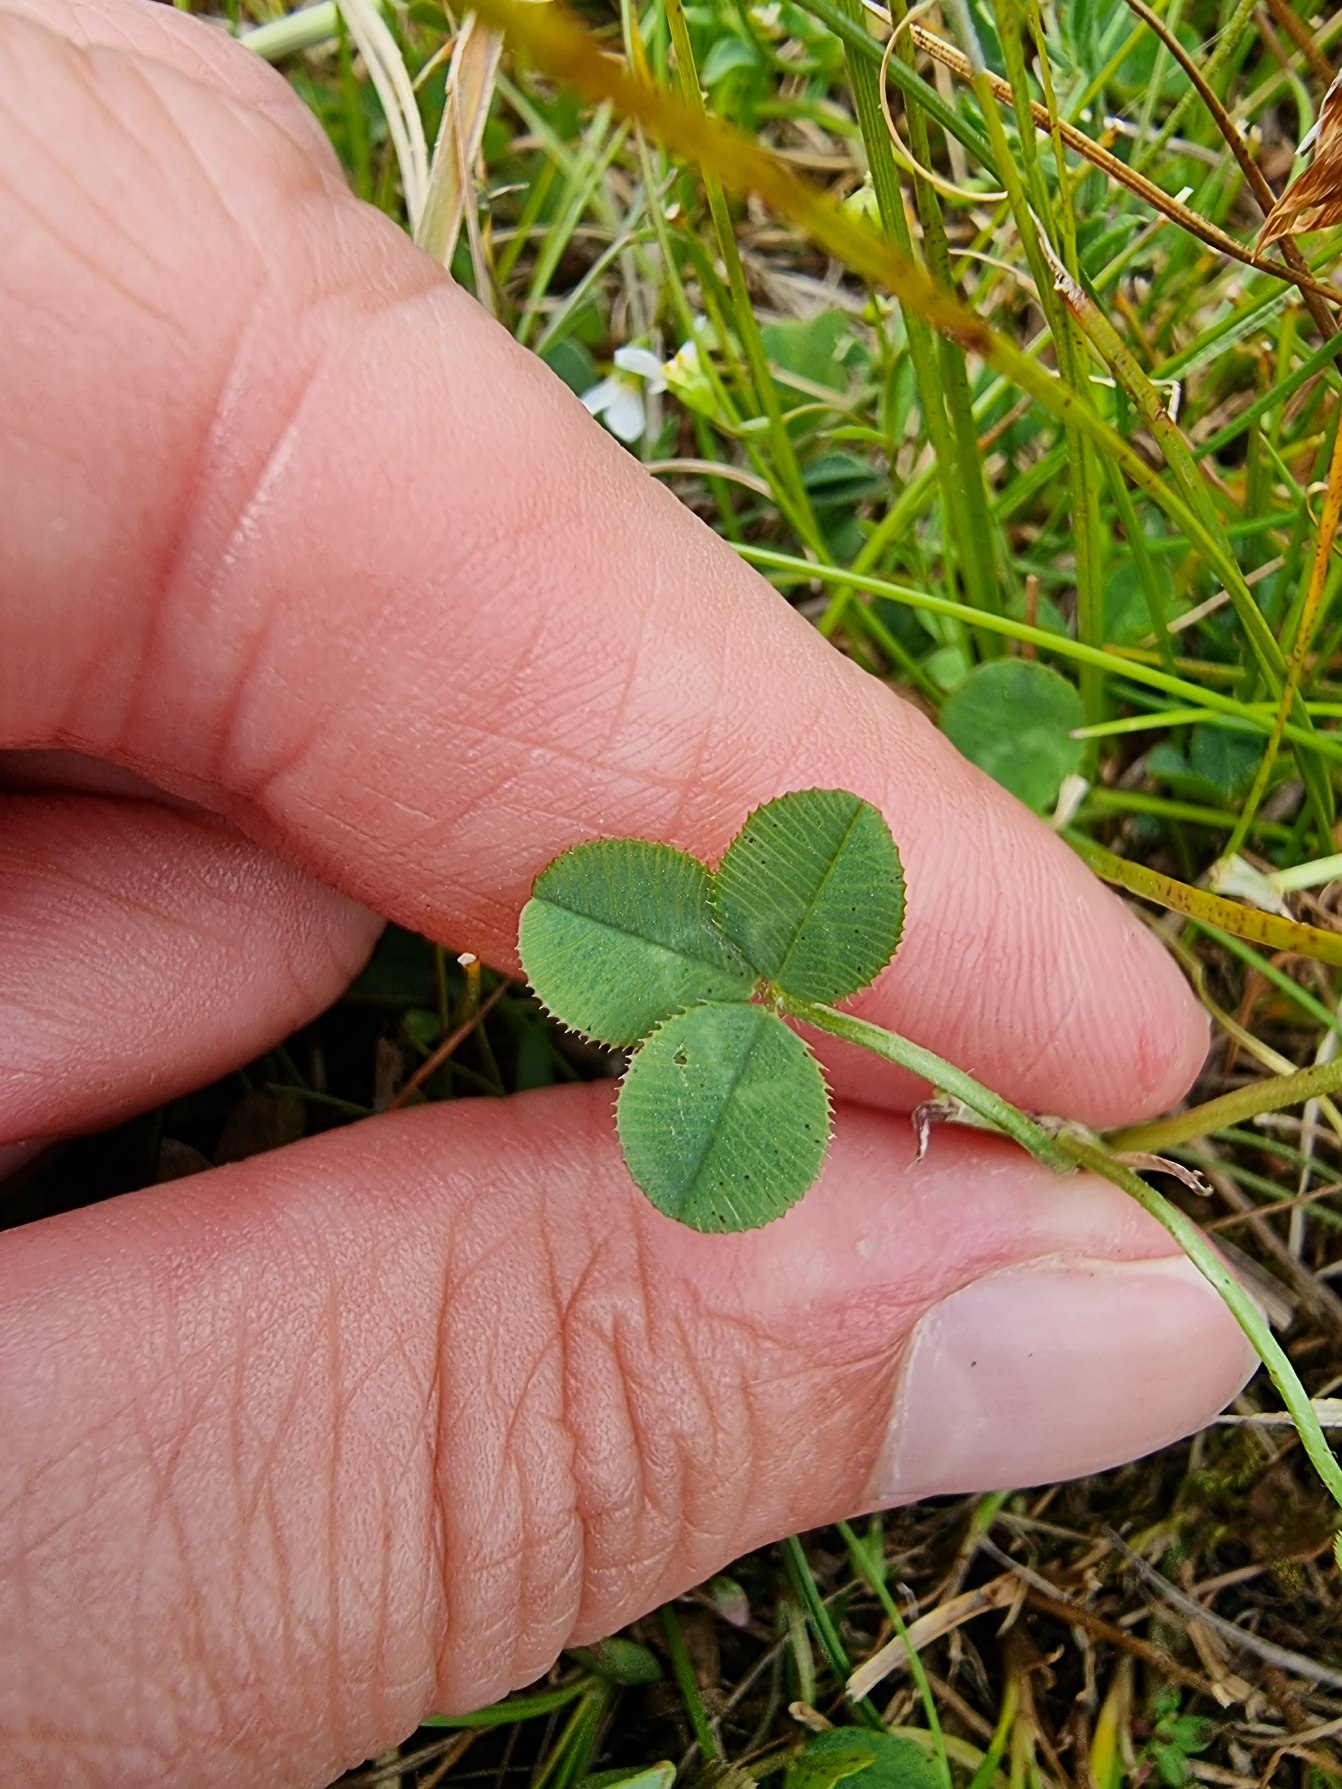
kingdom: Plantae
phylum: Tracheophyta
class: Magnoliopsida
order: Fabales
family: Fabaceae
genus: Trifolium
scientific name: Trifolium repens
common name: Hvid-kløver
